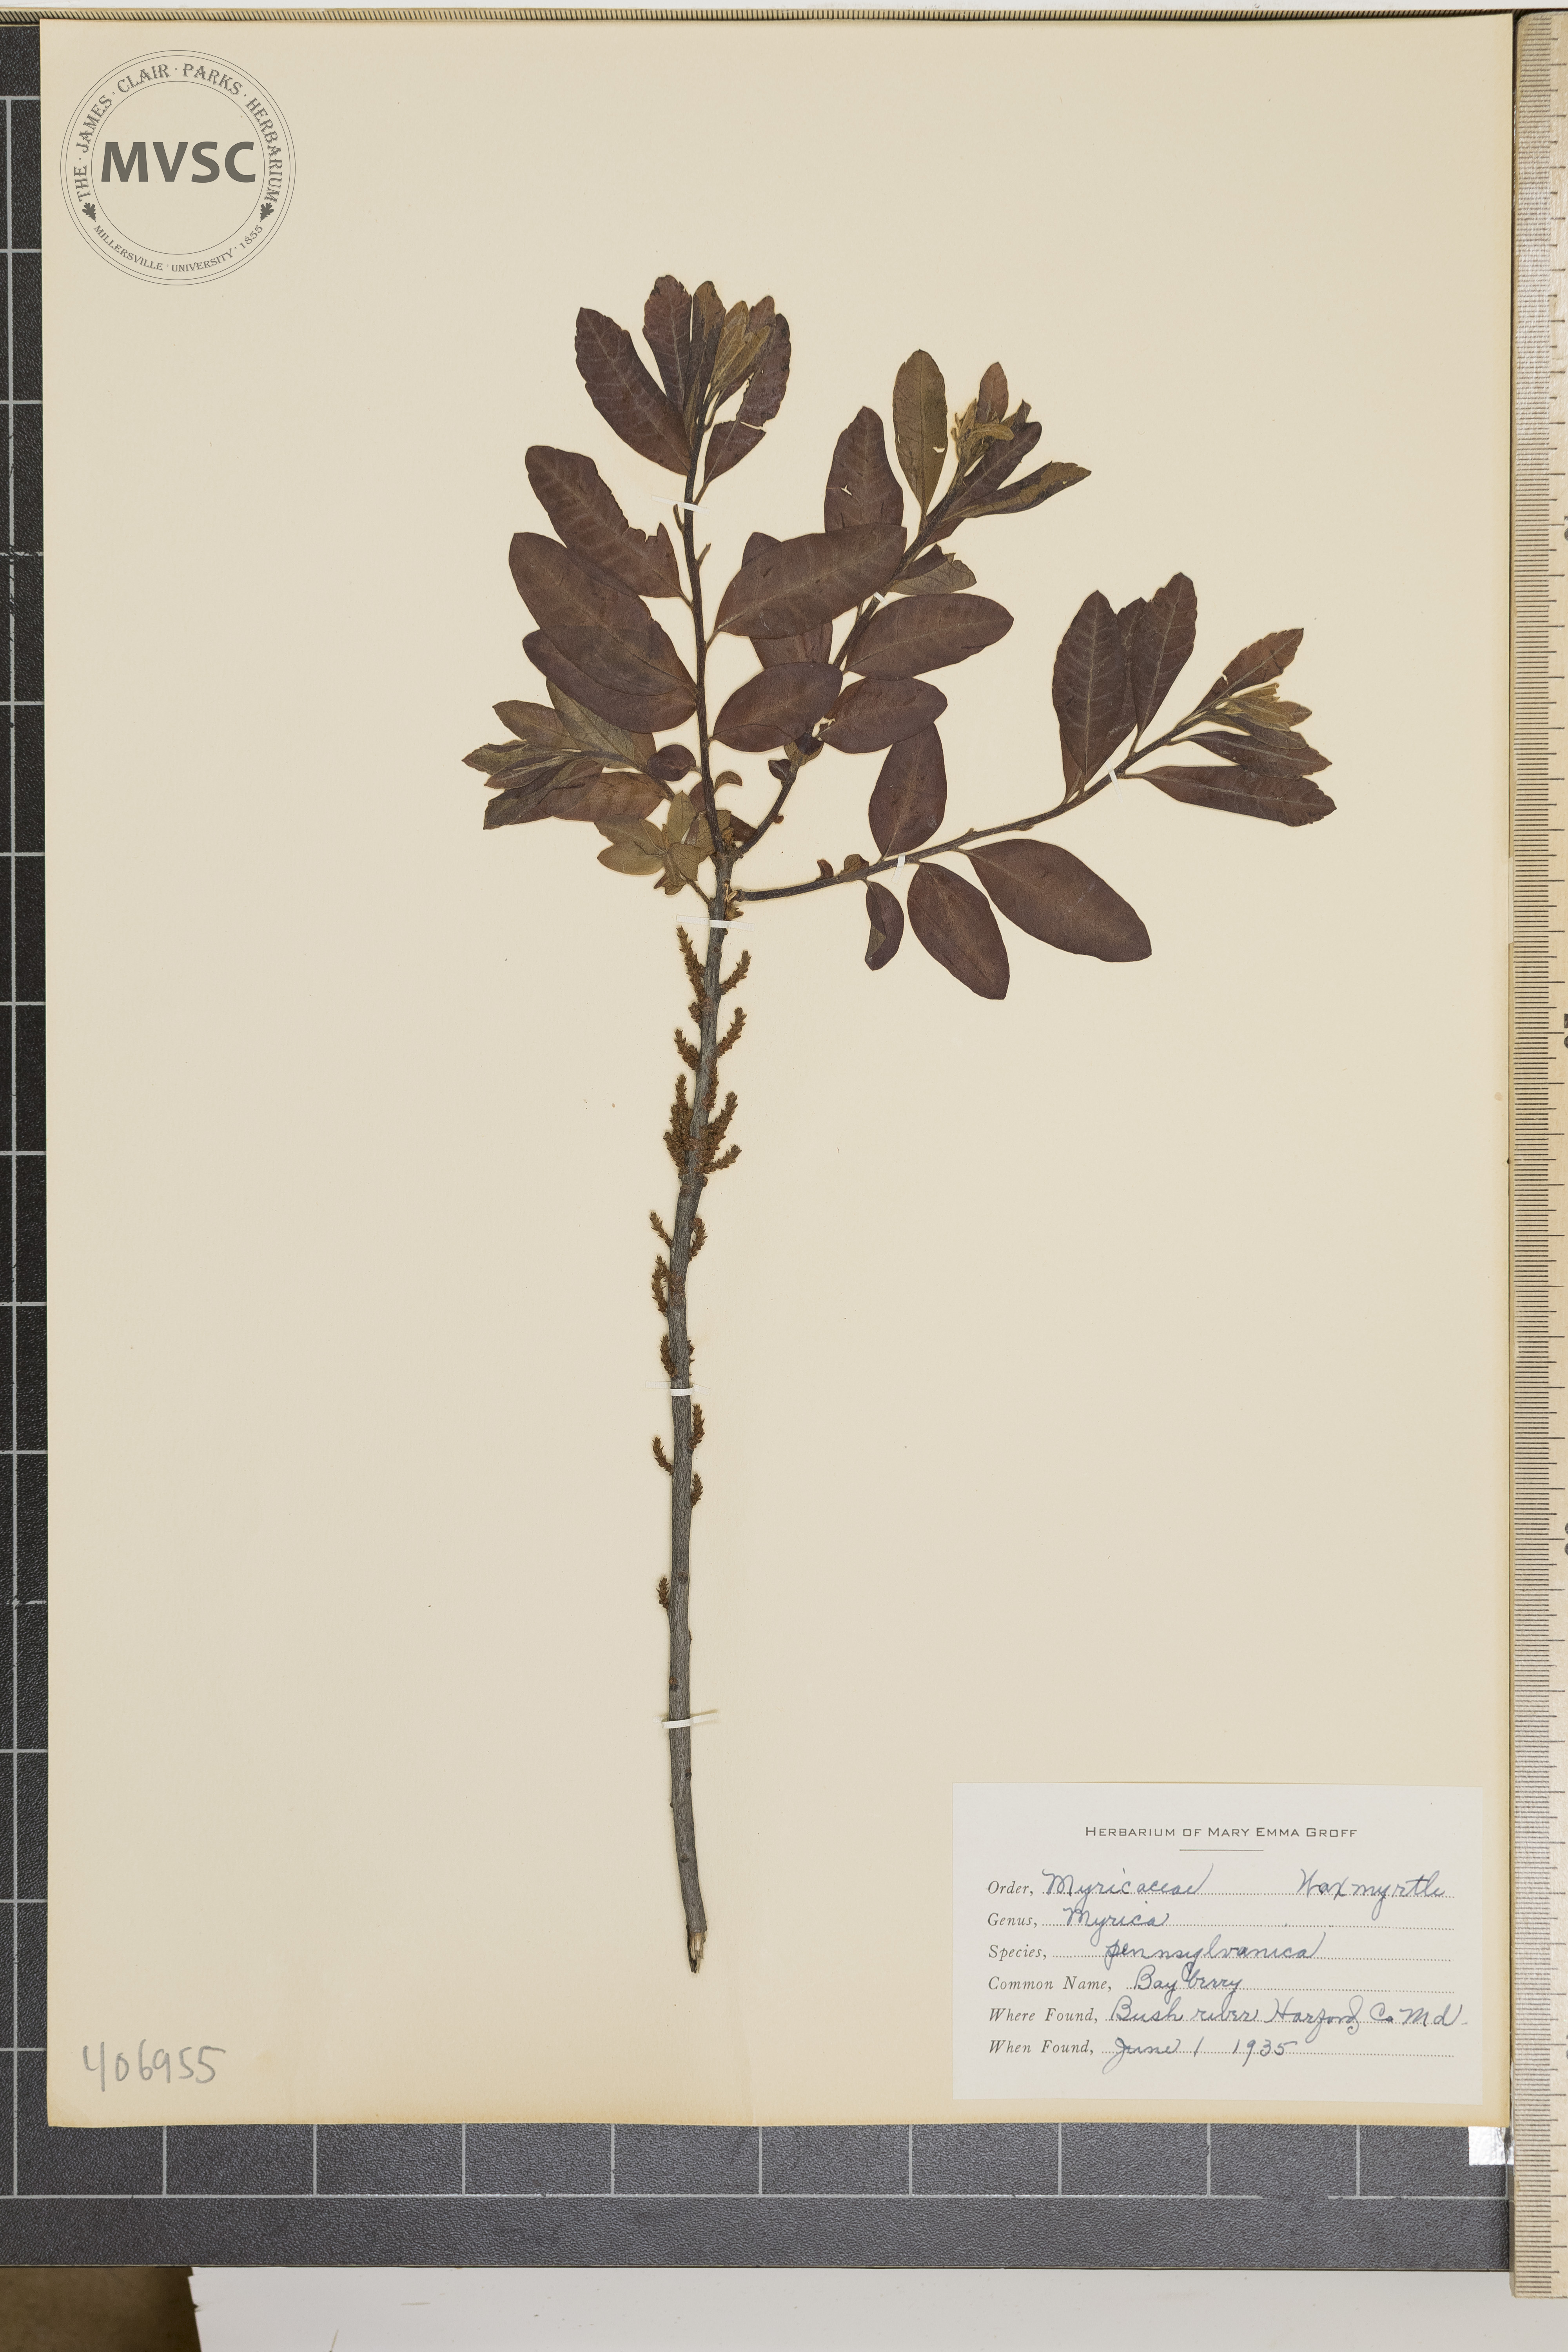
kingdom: Plantae
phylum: Tracheophyta
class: Magnoliopsida
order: Fagales
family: Myricaceae
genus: Morella
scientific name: Morella
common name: Bayberry
